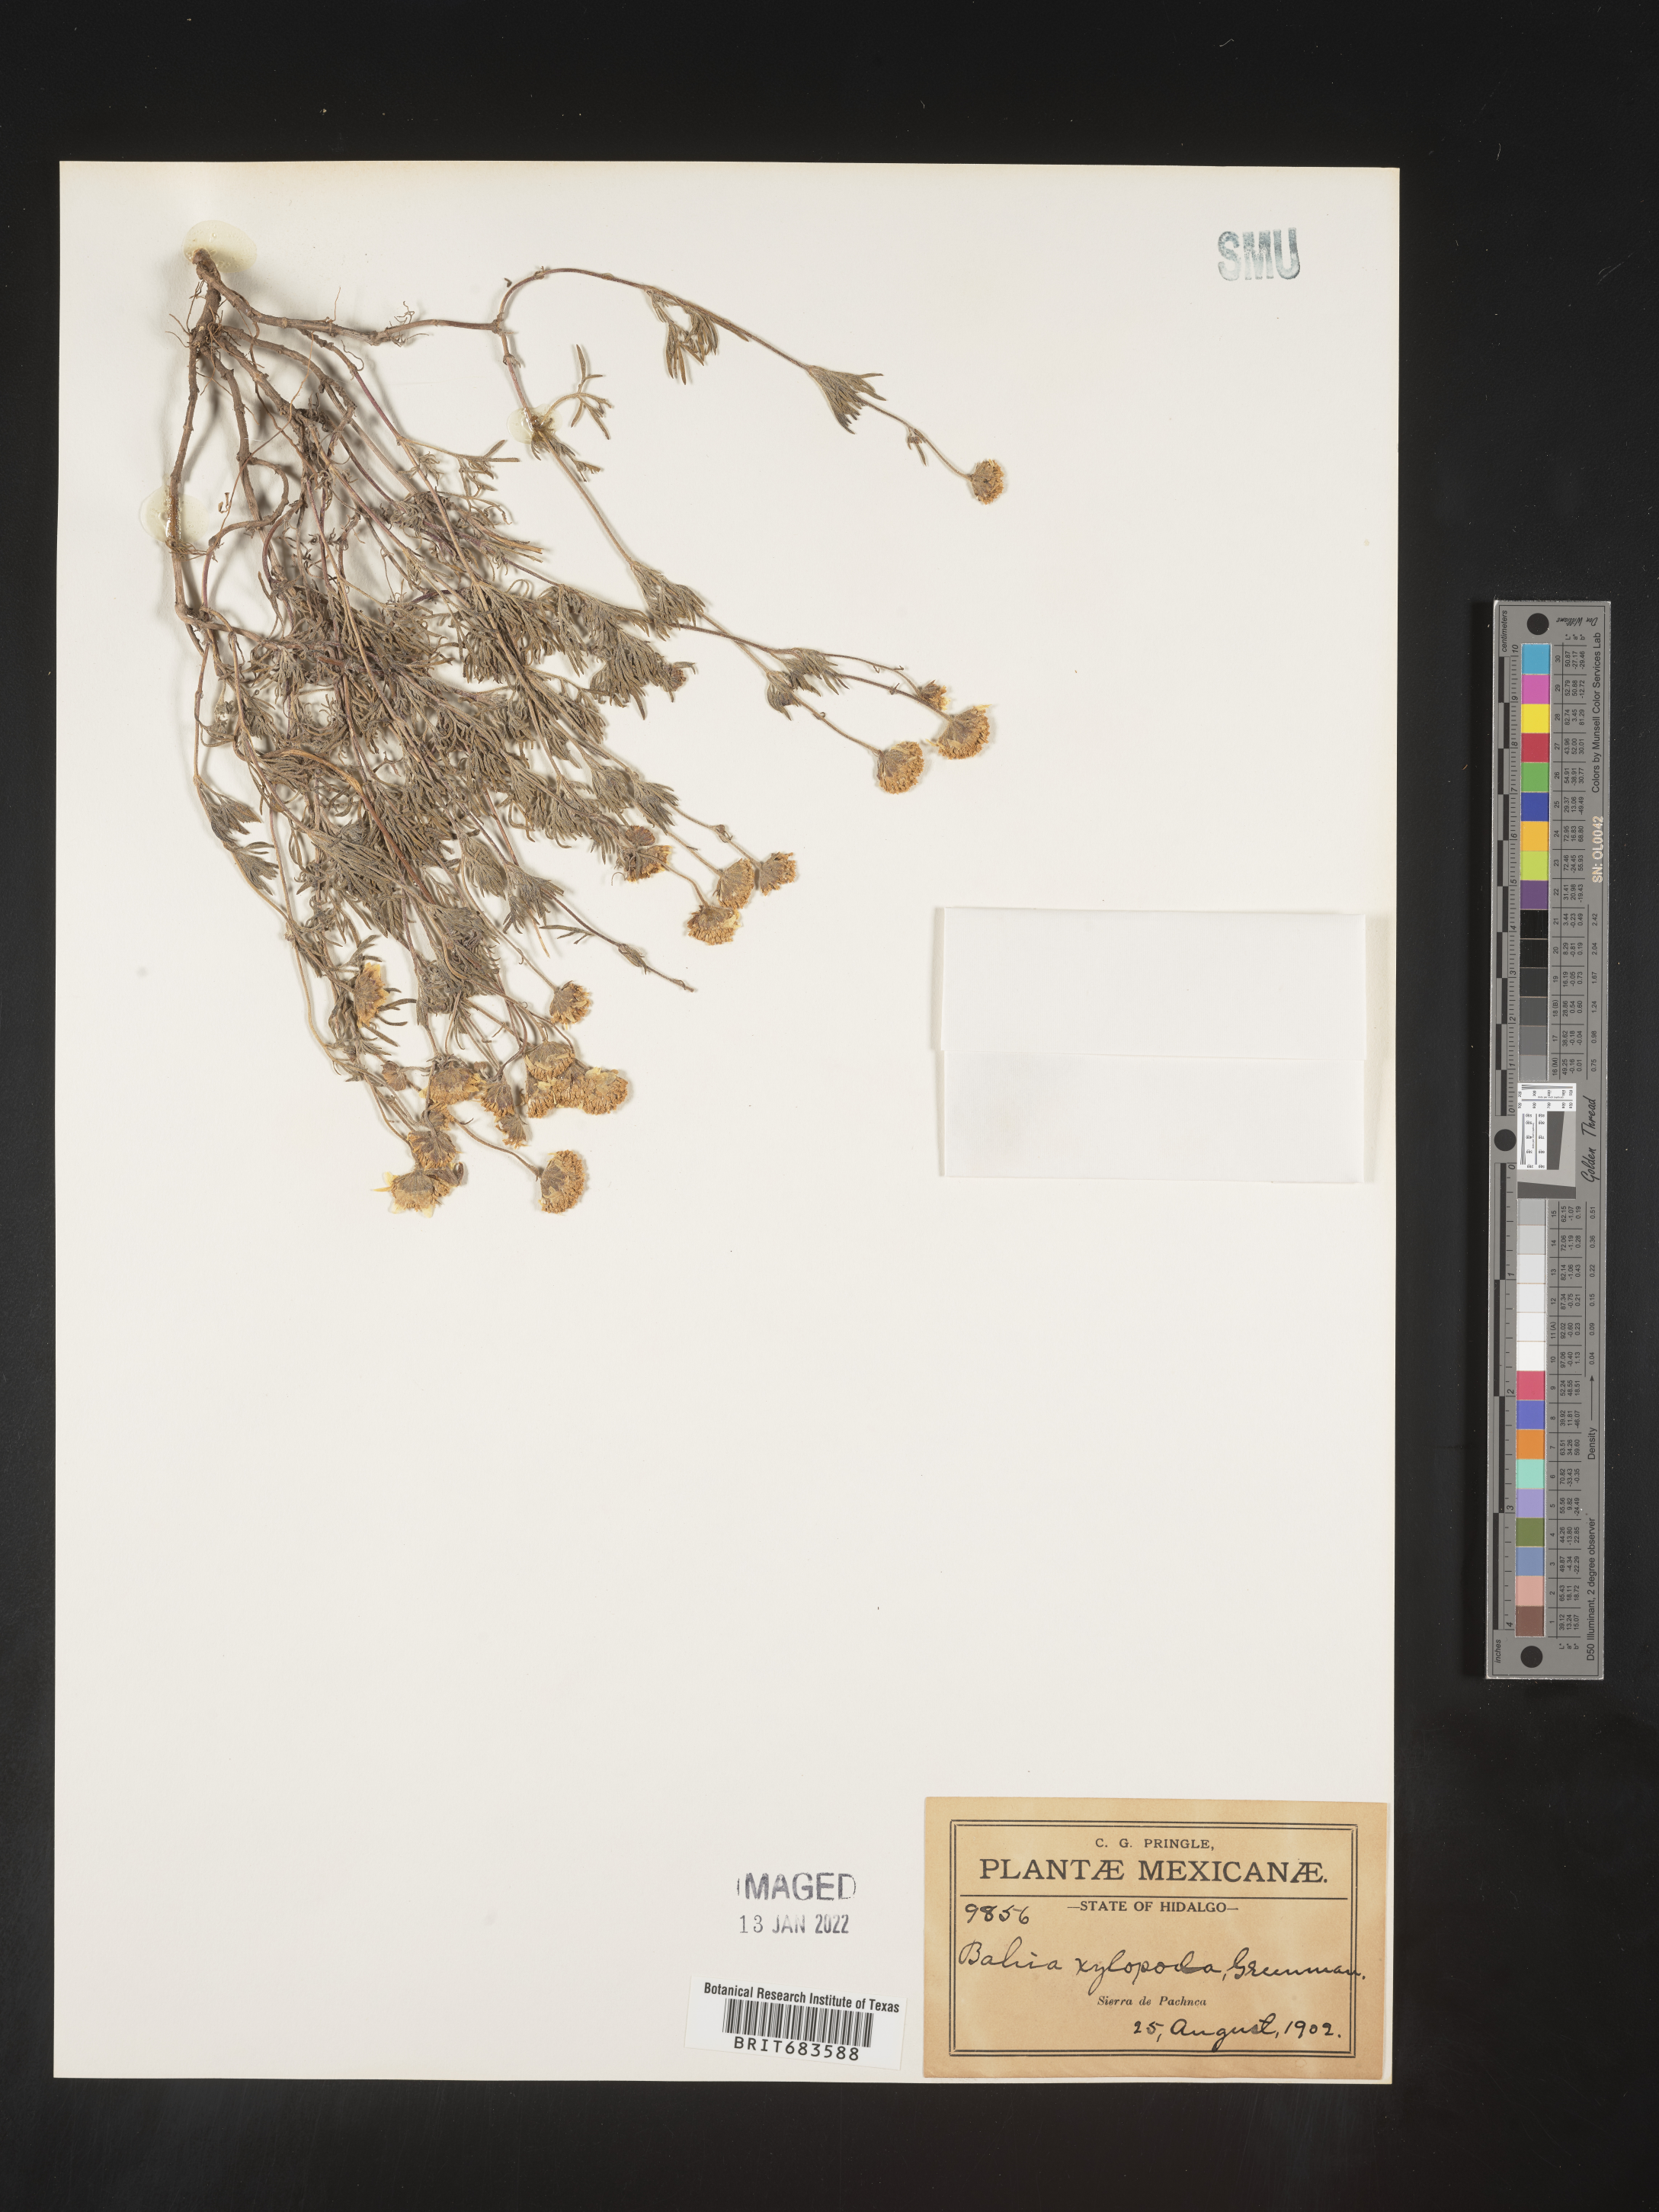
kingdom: Plantae
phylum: Tracheophyta
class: Magnoliopsida
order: Asterales
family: Asteraceae
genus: Bahia
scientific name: Bahia
